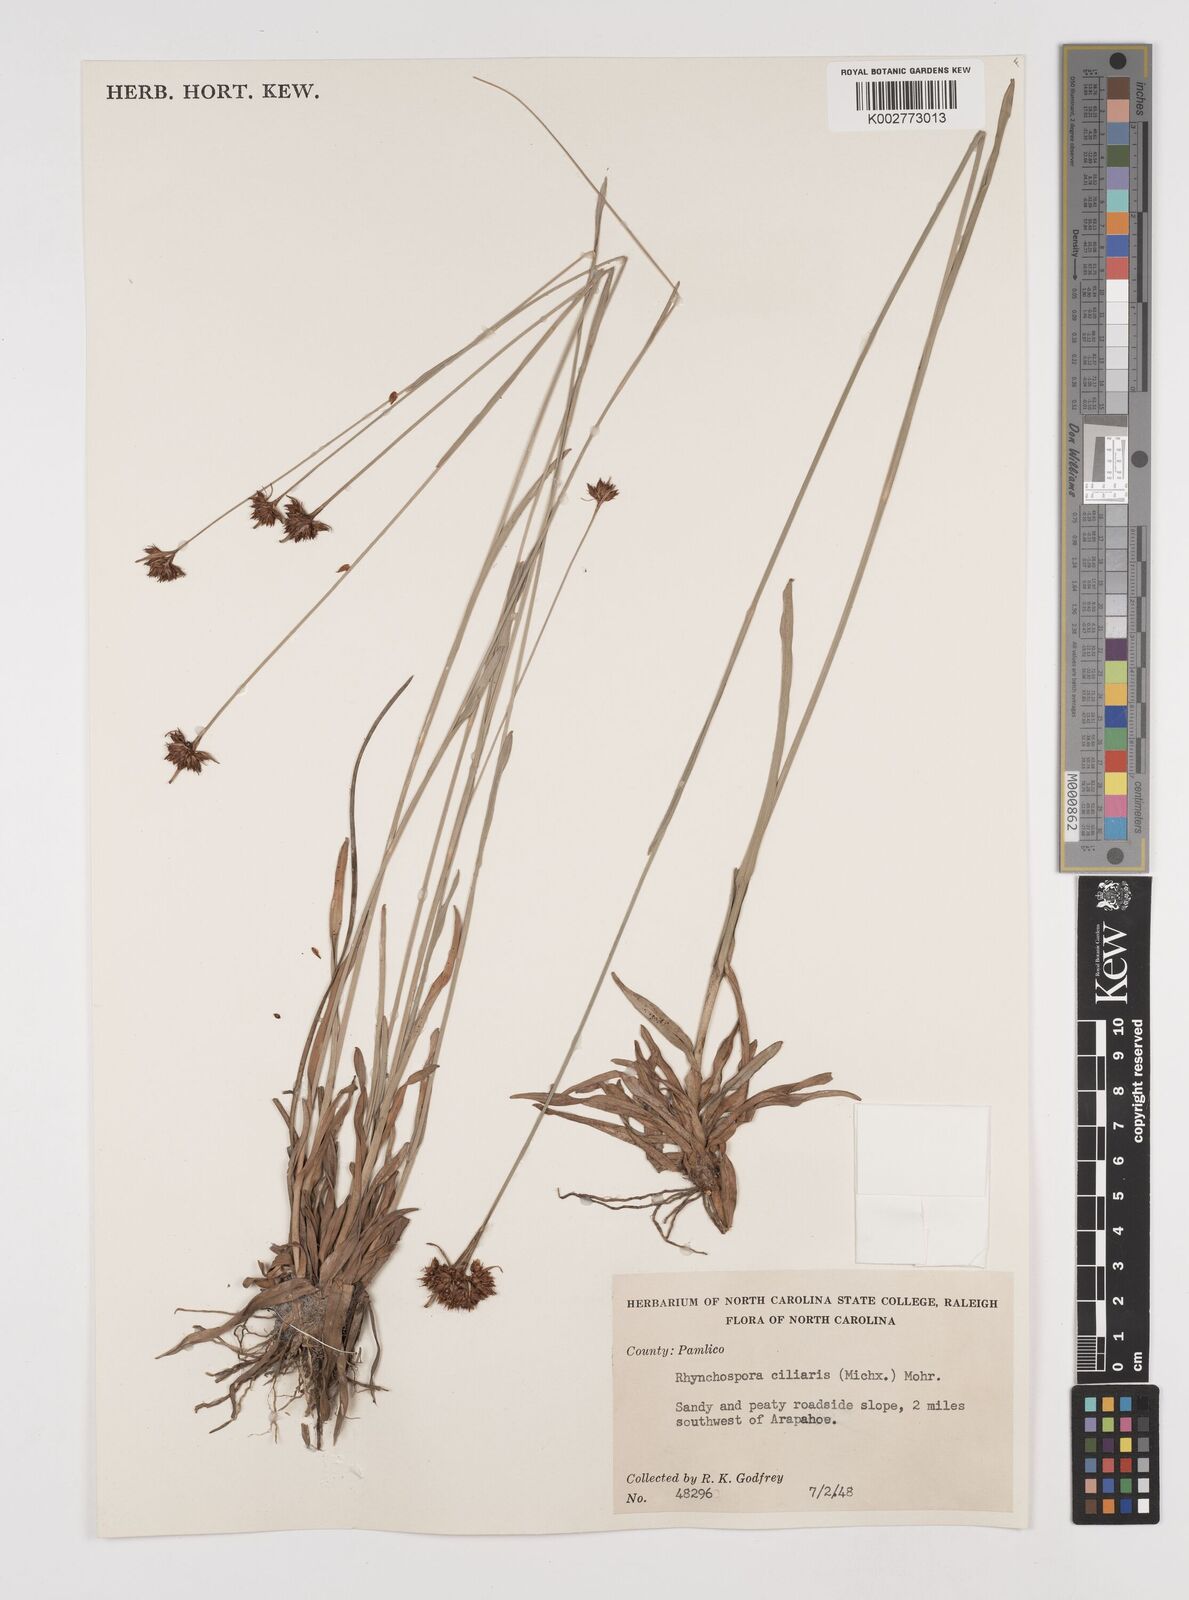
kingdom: Plantae
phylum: Tracheophyta
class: Liliopsida
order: Poales
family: Cyperaceae
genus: Rhynchospora
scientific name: Rhynchospora ciliaris
